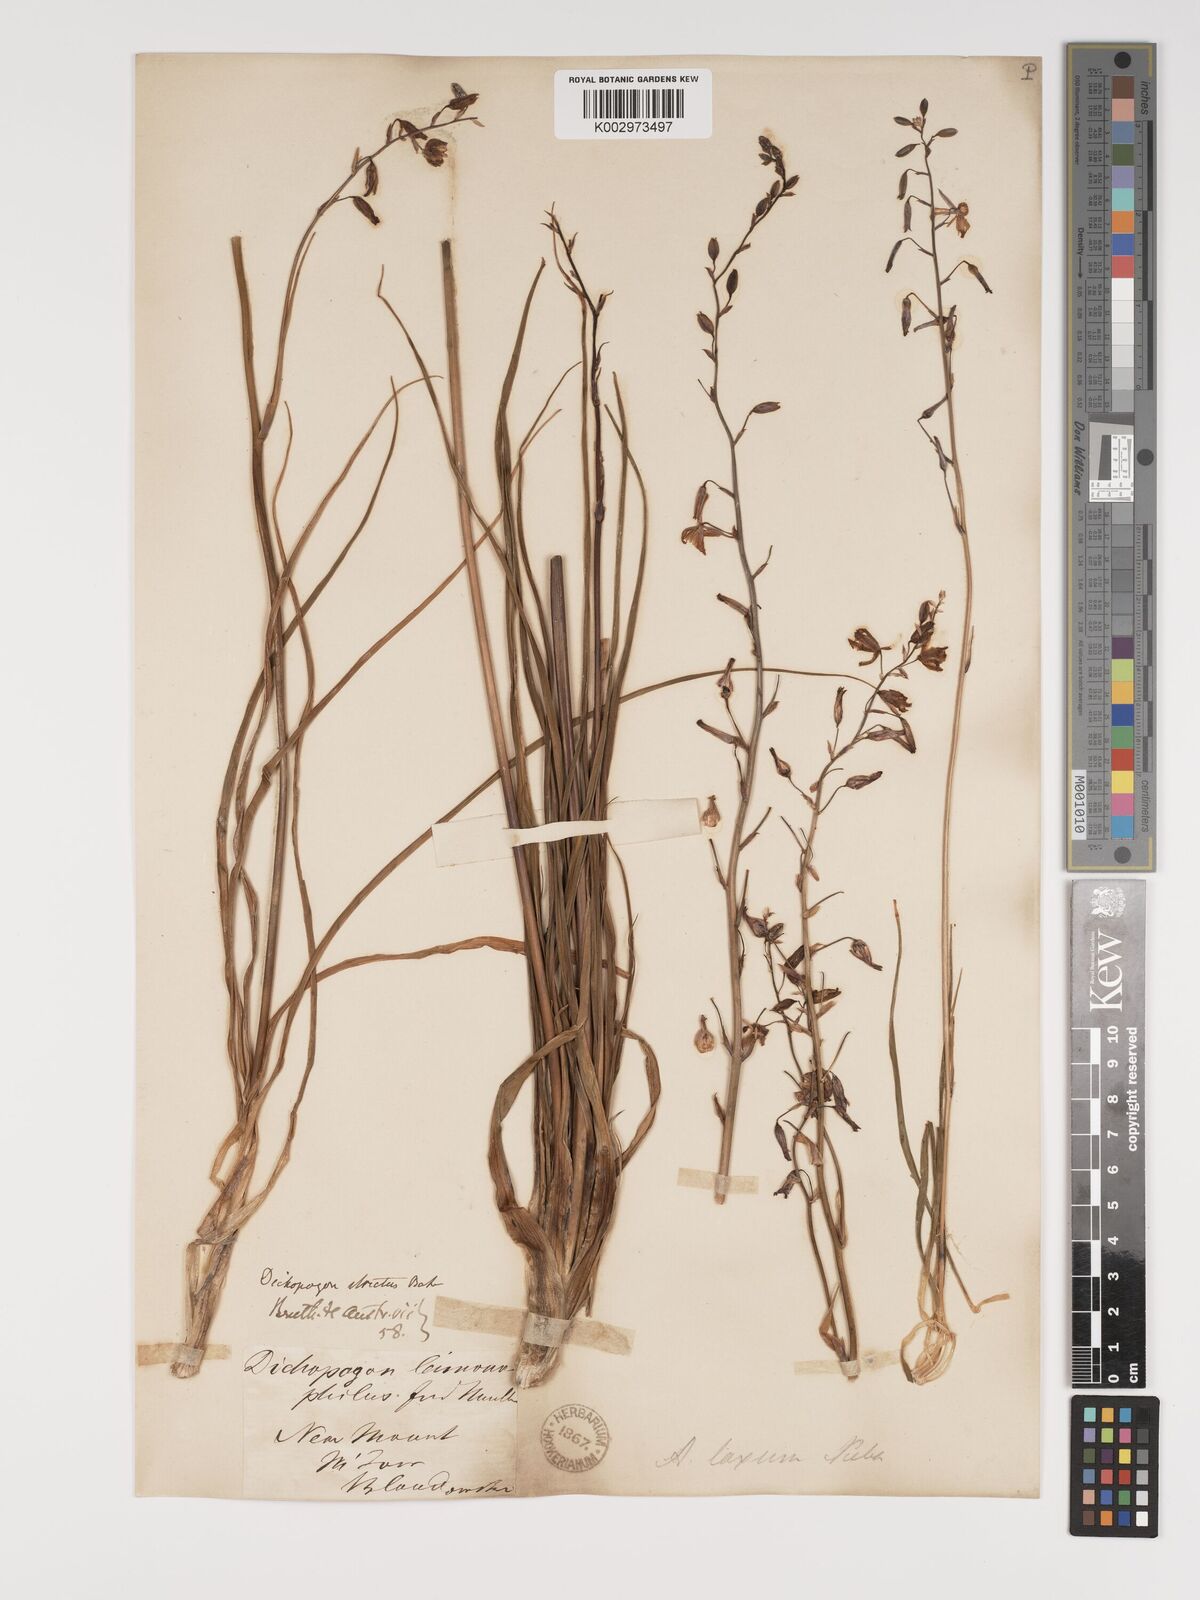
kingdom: Plantae
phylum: Tracheophyta
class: Liliopsida
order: Asparagales
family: Asparagaceae
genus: Arthropodium
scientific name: Arthropodium strictum
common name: Chocolate-lily
